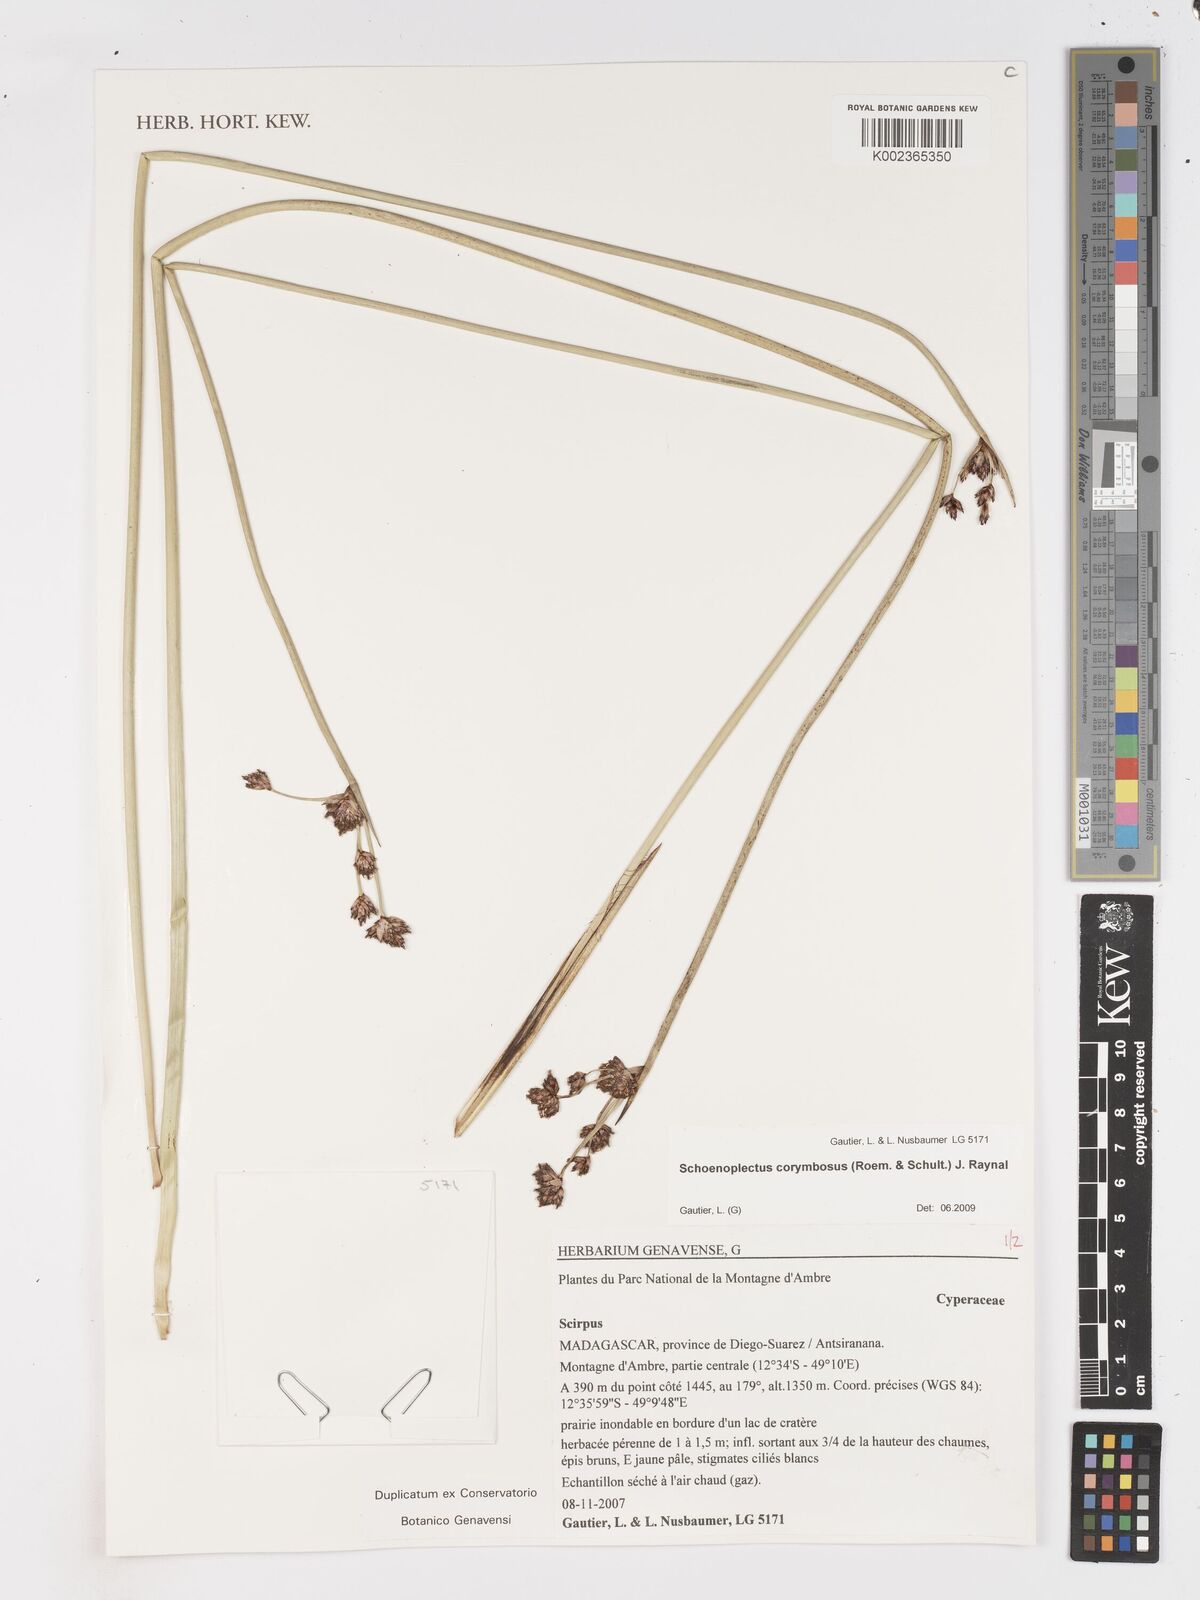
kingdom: Plantae
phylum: Tracheophyta
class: Liliopsida
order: Poales
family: Cyperaceae
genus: Schoenoplectiella
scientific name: Schoenoplectiella brachyceras
